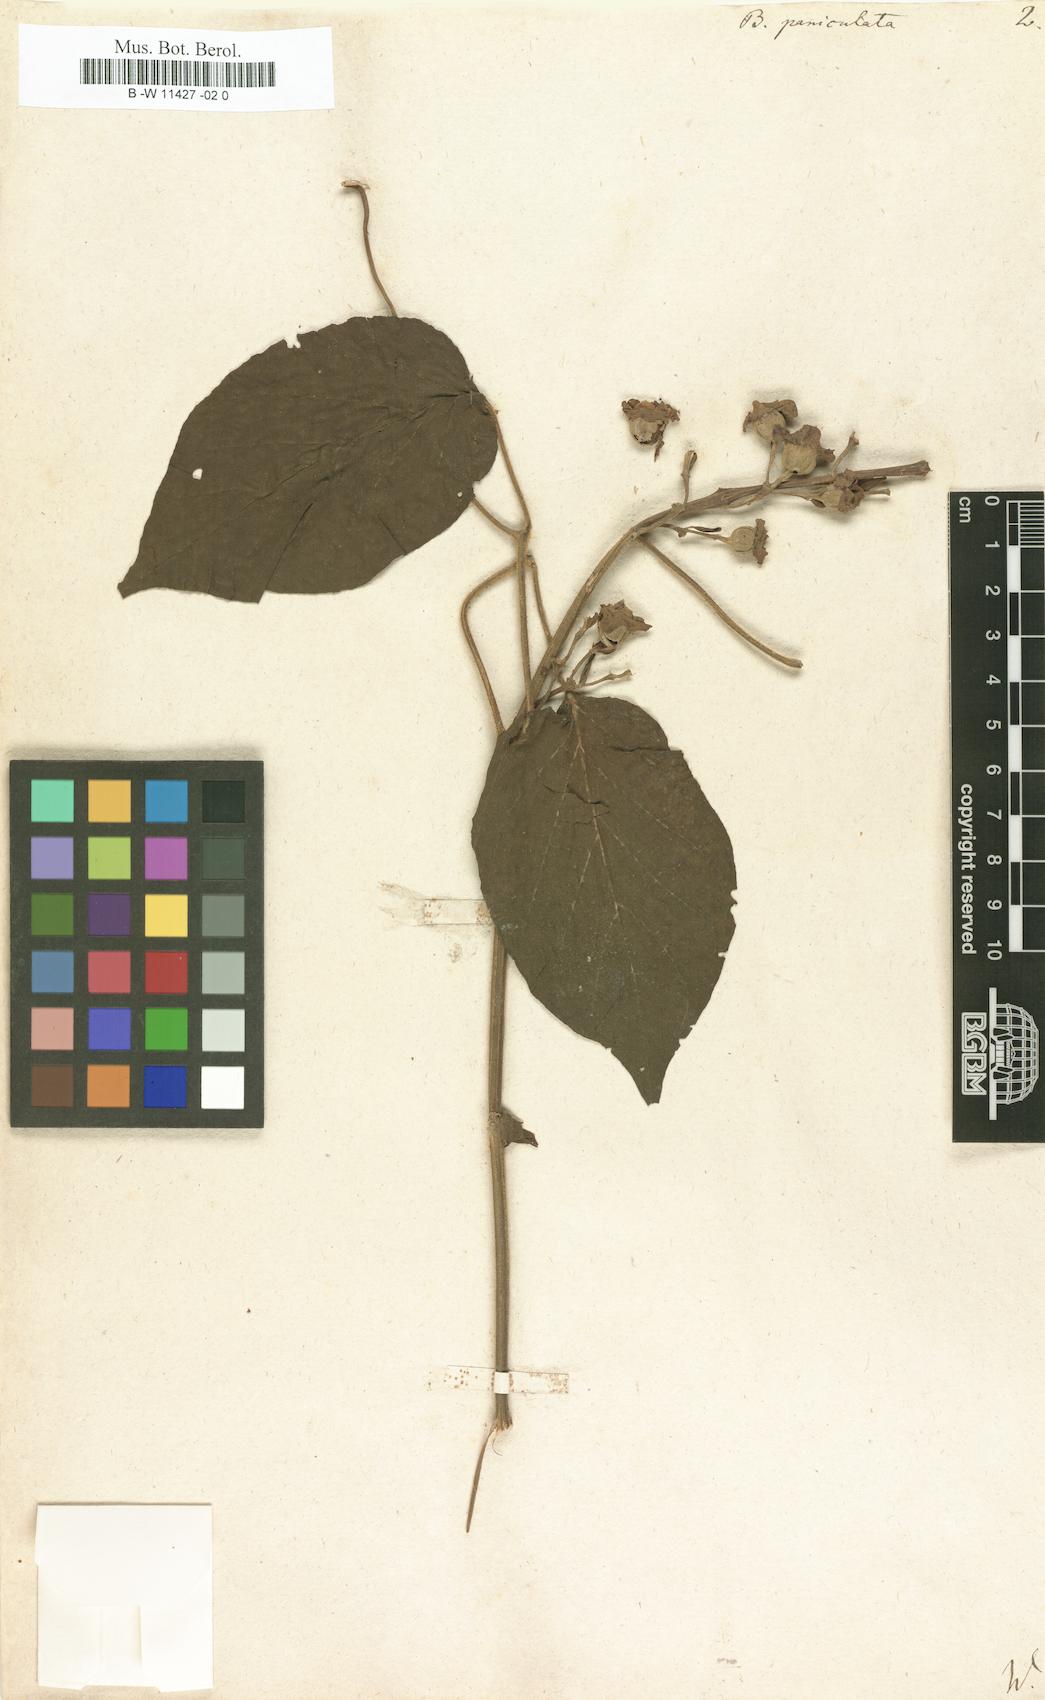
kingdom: Plantae
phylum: Tracheophyta
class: Magnoliopsida
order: Lamiales
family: Bignoniaceae
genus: Amphilophium
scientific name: Amphilophium paniculatum
